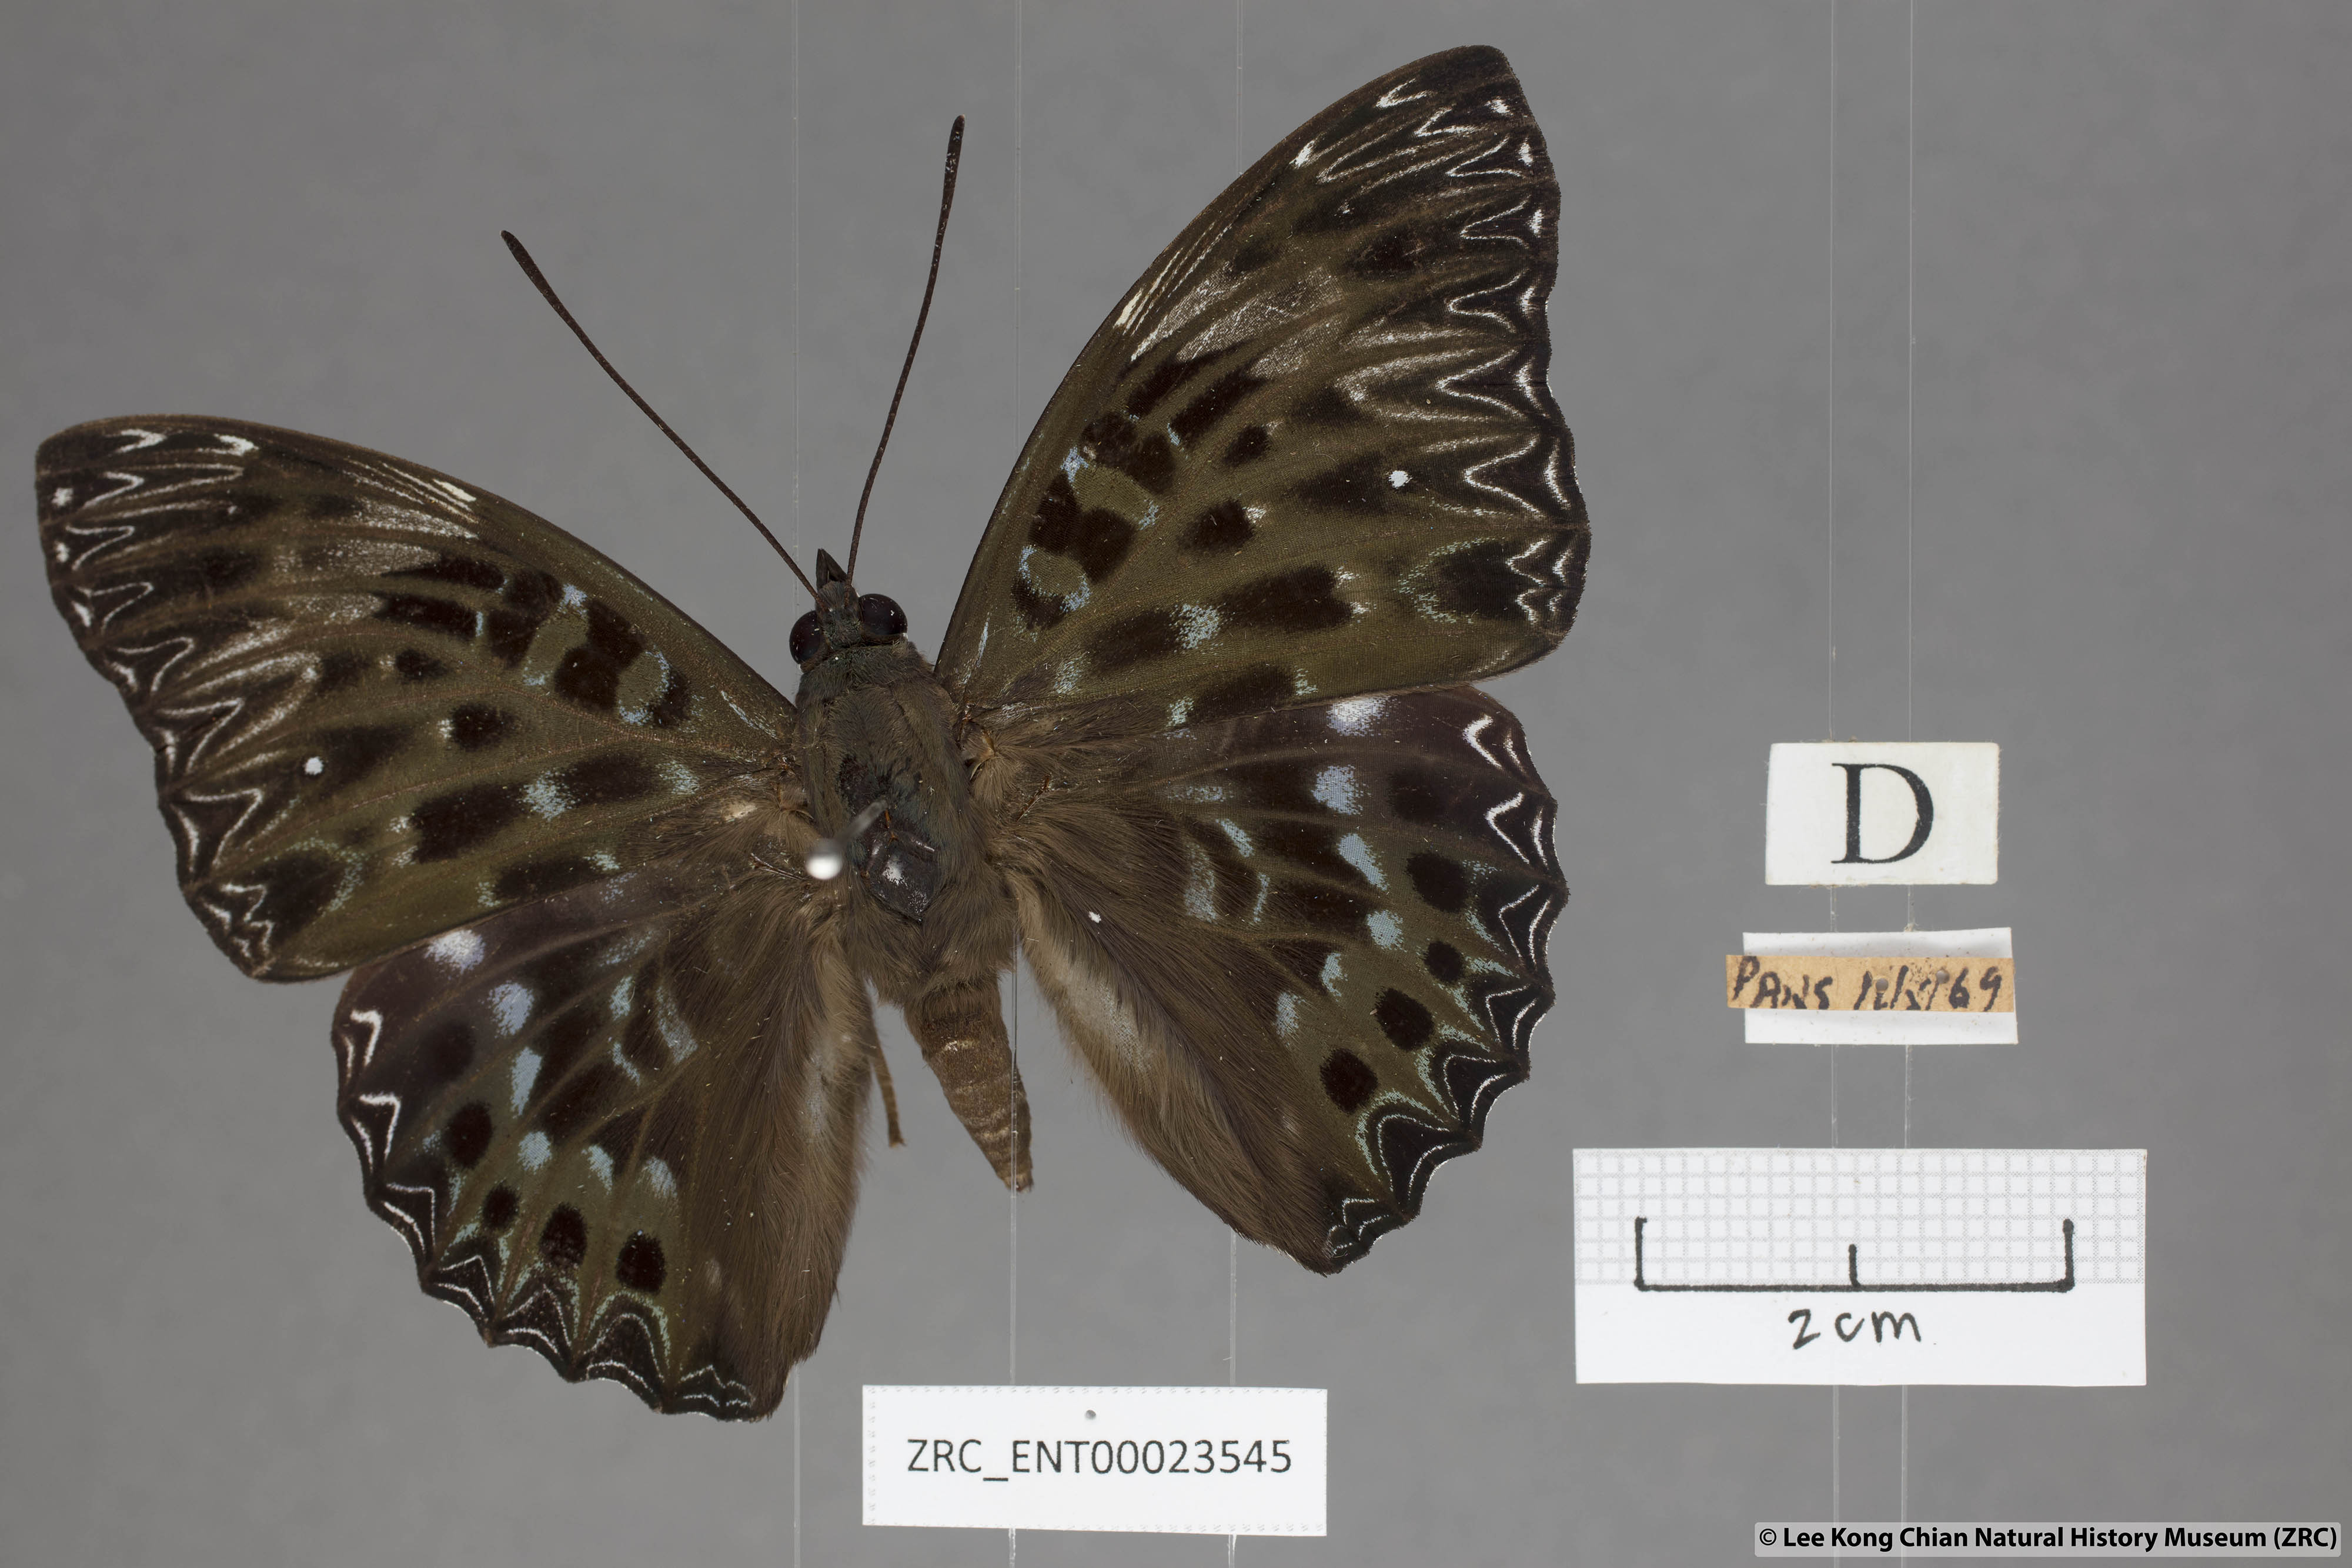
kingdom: Animalia
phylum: Arthropoda
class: Insecta
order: Lepidoptera
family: Nymphalidae
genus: Dichorragia
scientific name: Dichorragia nesimachus
